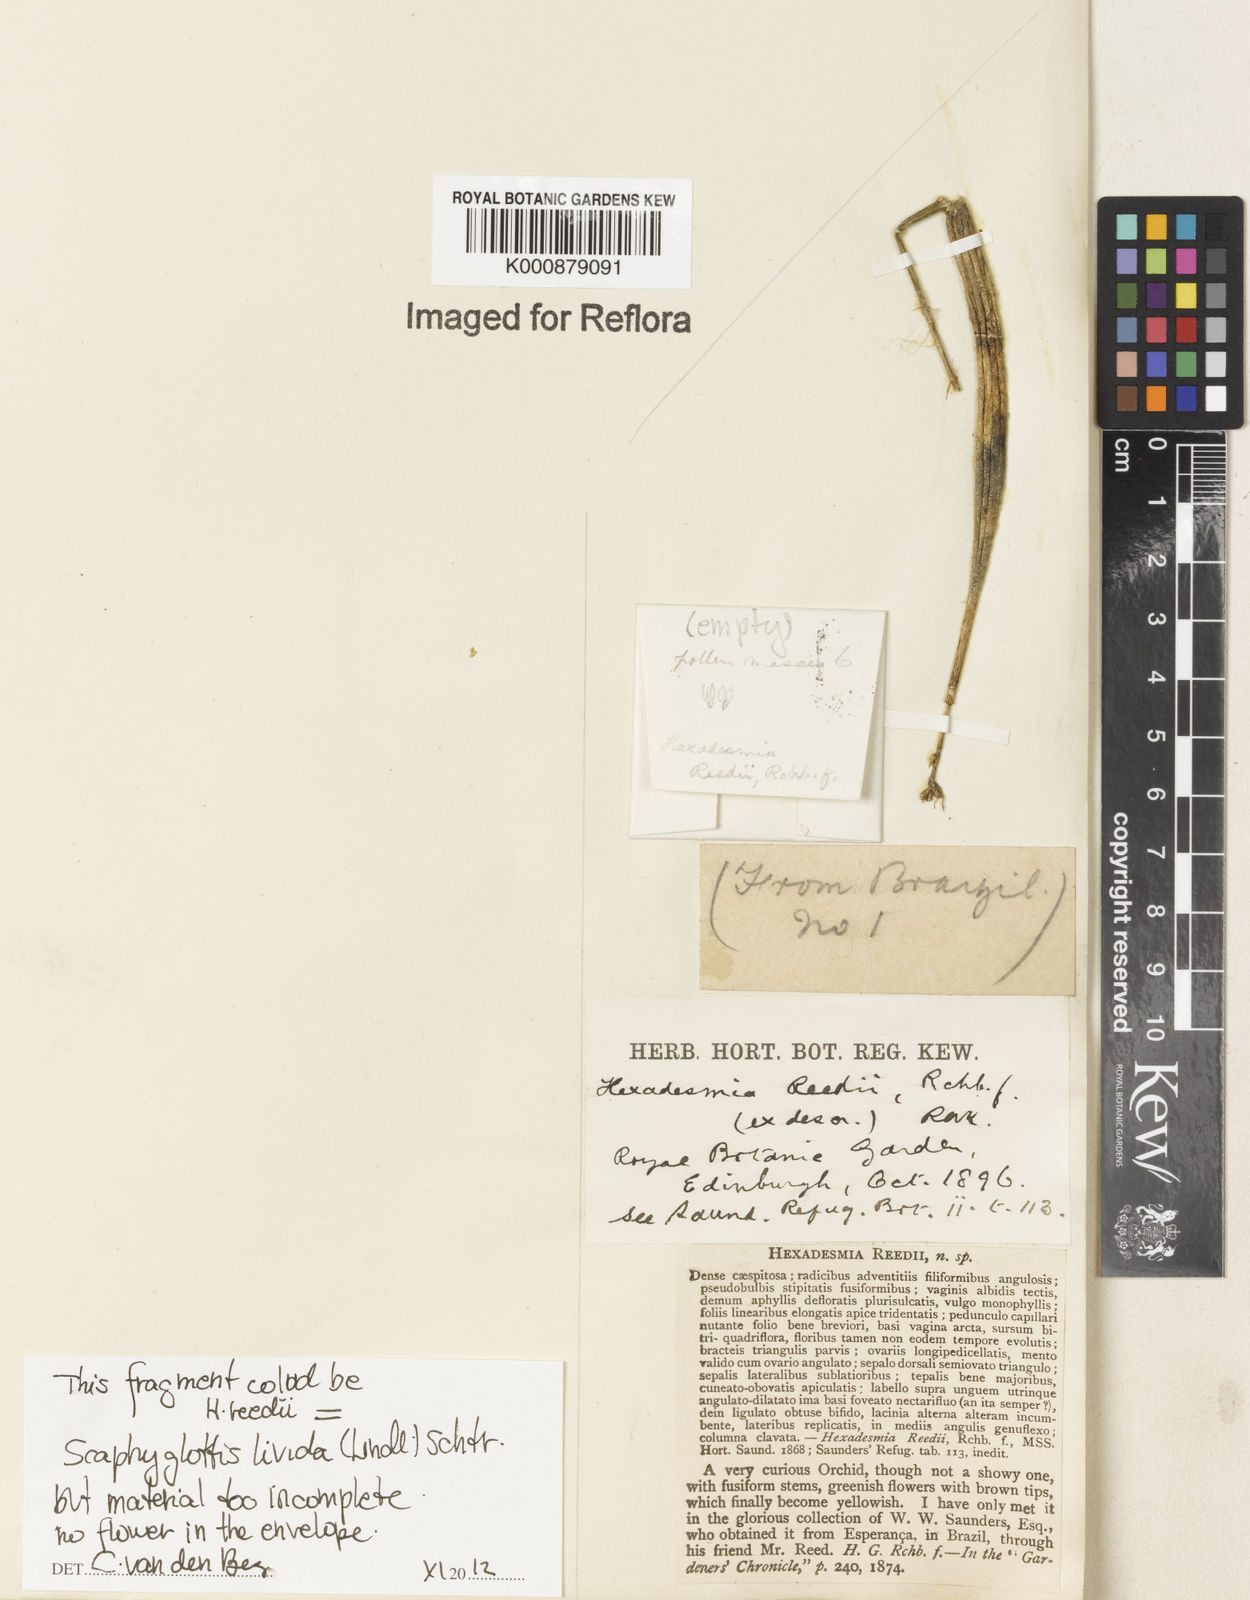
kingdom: Plantae
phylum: Tracheophyta
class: Liliopsida
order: Asparagales
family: Orchidaceae
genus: Scaphyglottis
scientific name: Scaphyglottis livida
